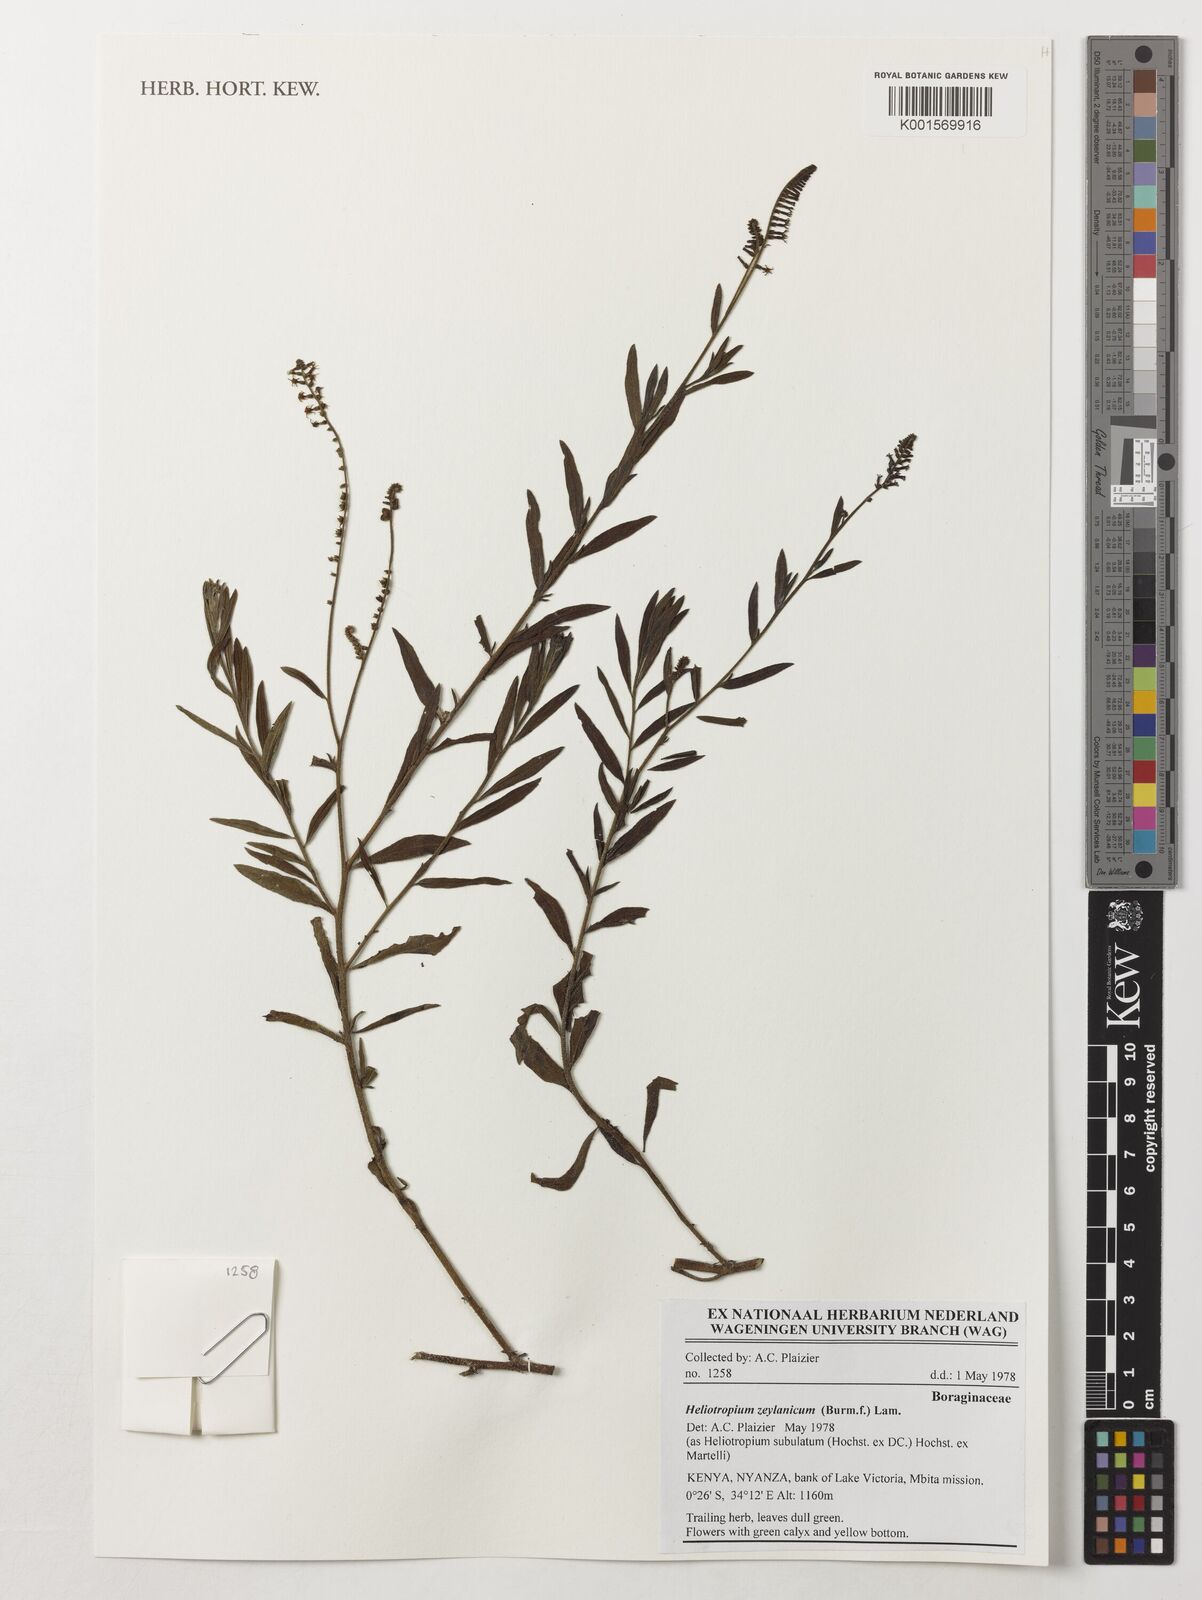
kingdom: Plantae
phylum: Tracheophyta
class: Magnoliopsida
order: Boraginales
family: Heliotropiaceae
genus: Heliotropium
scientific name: Heliotropium zeylanicum
